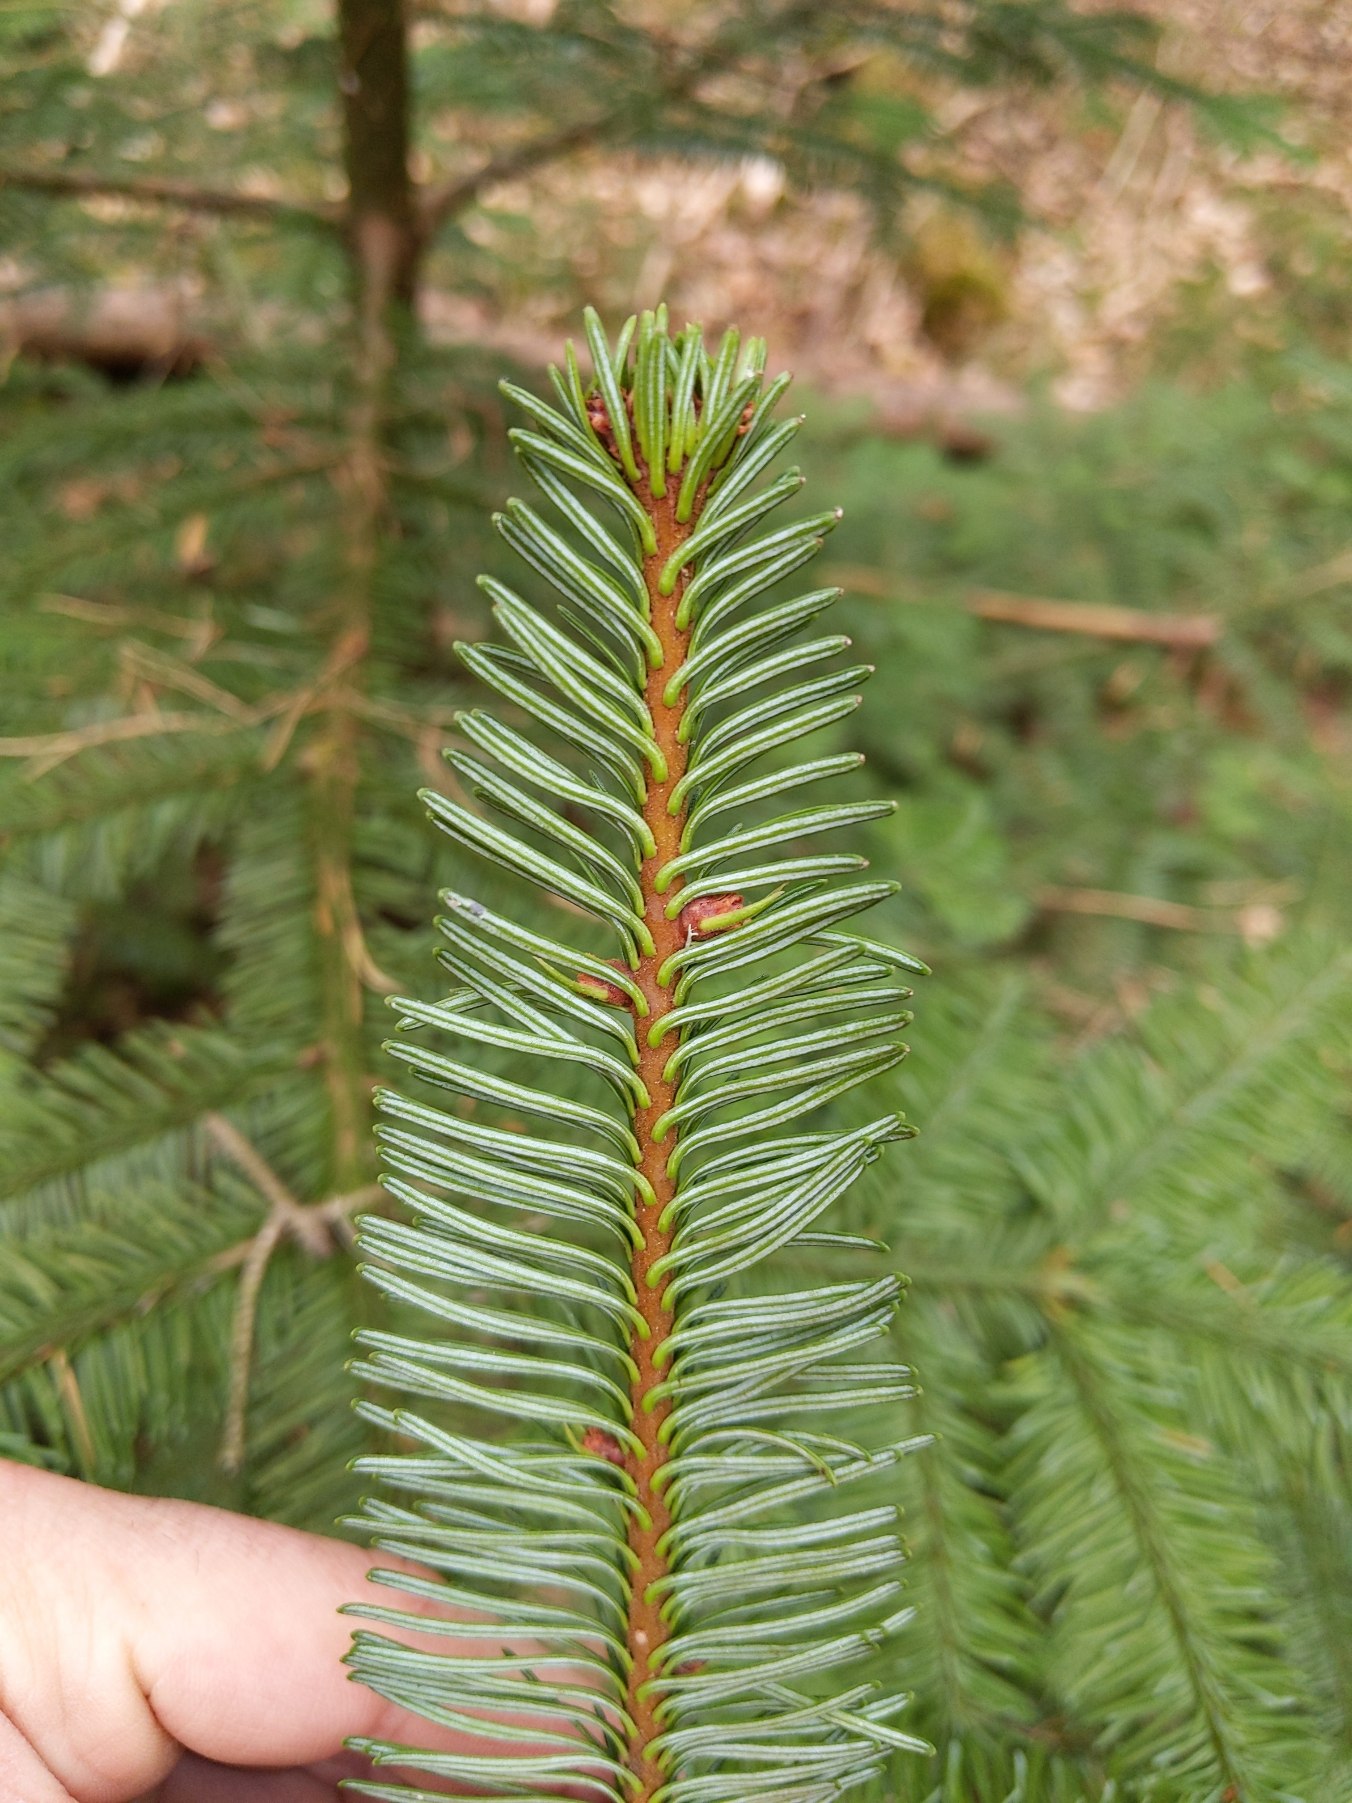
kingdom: Plantae
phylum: Tracheophyta
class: Pinopsida
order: Pinales
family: Pinaceae
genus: Abies
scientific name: Abies procera
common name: Sølvgran
